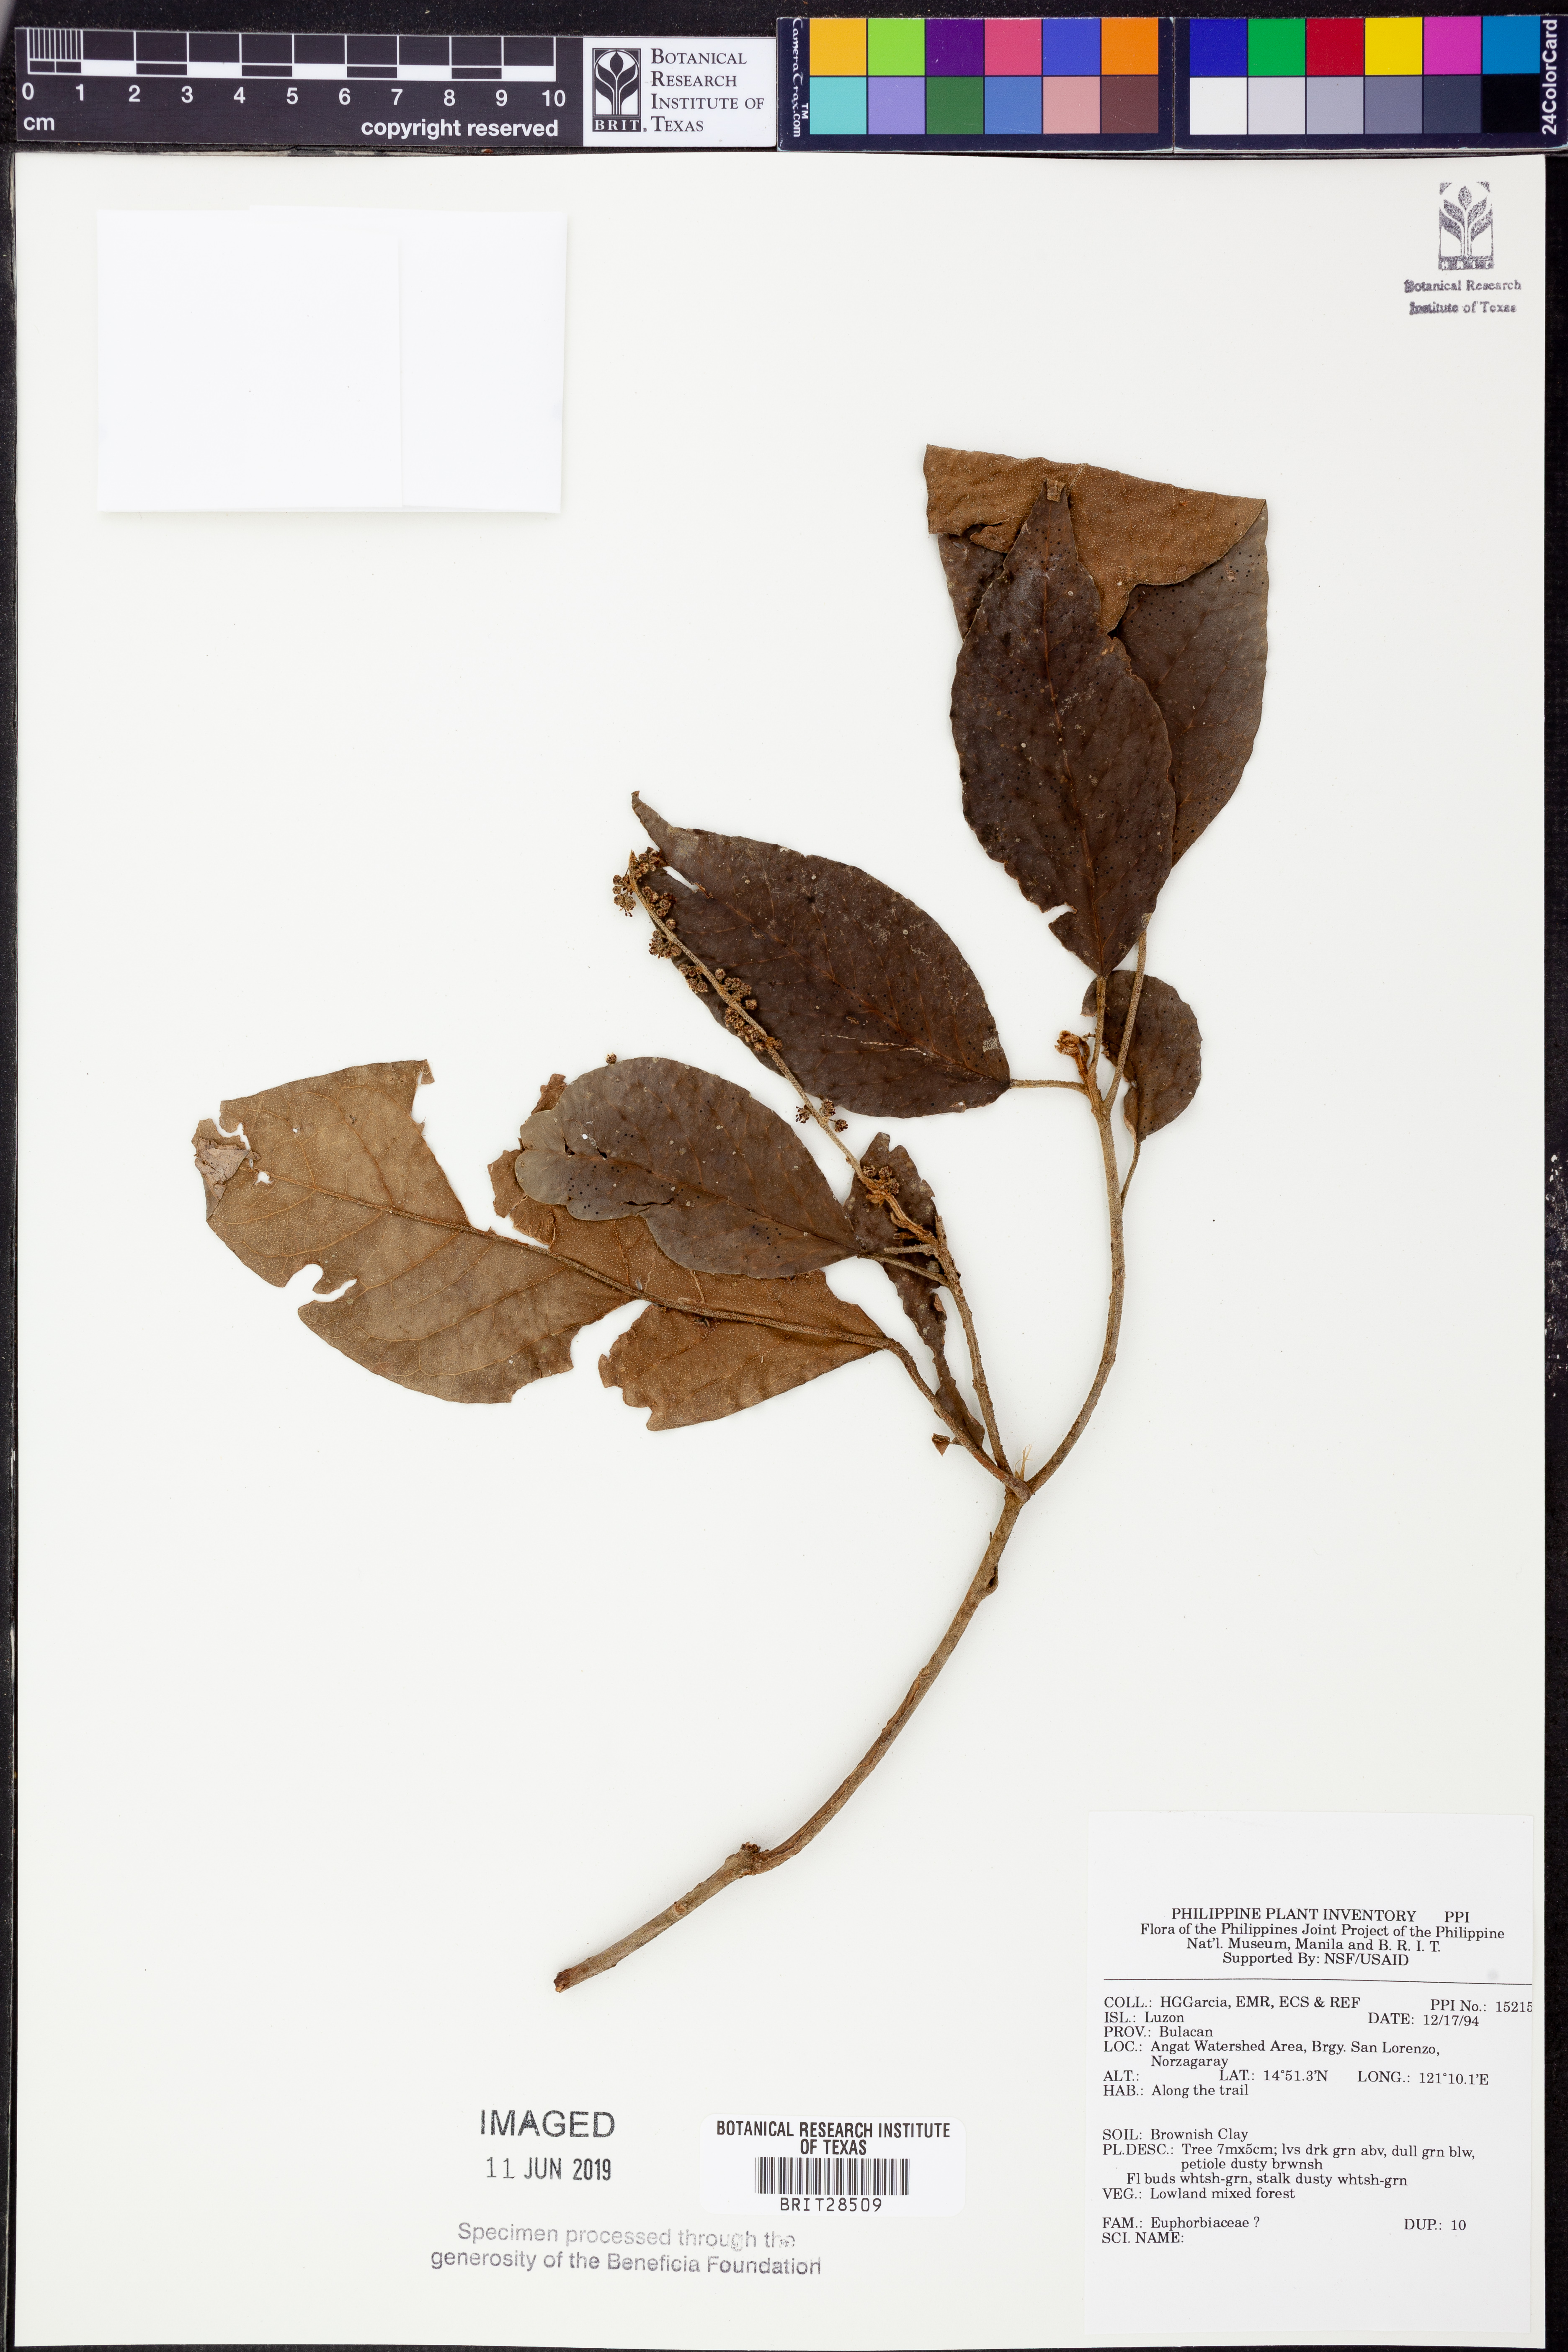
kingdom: Plantae
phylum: Tracheophyta
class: Magnoliopsida
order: Malpighiales
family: Euphorbiaceae
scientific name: Euphorbiaceae
